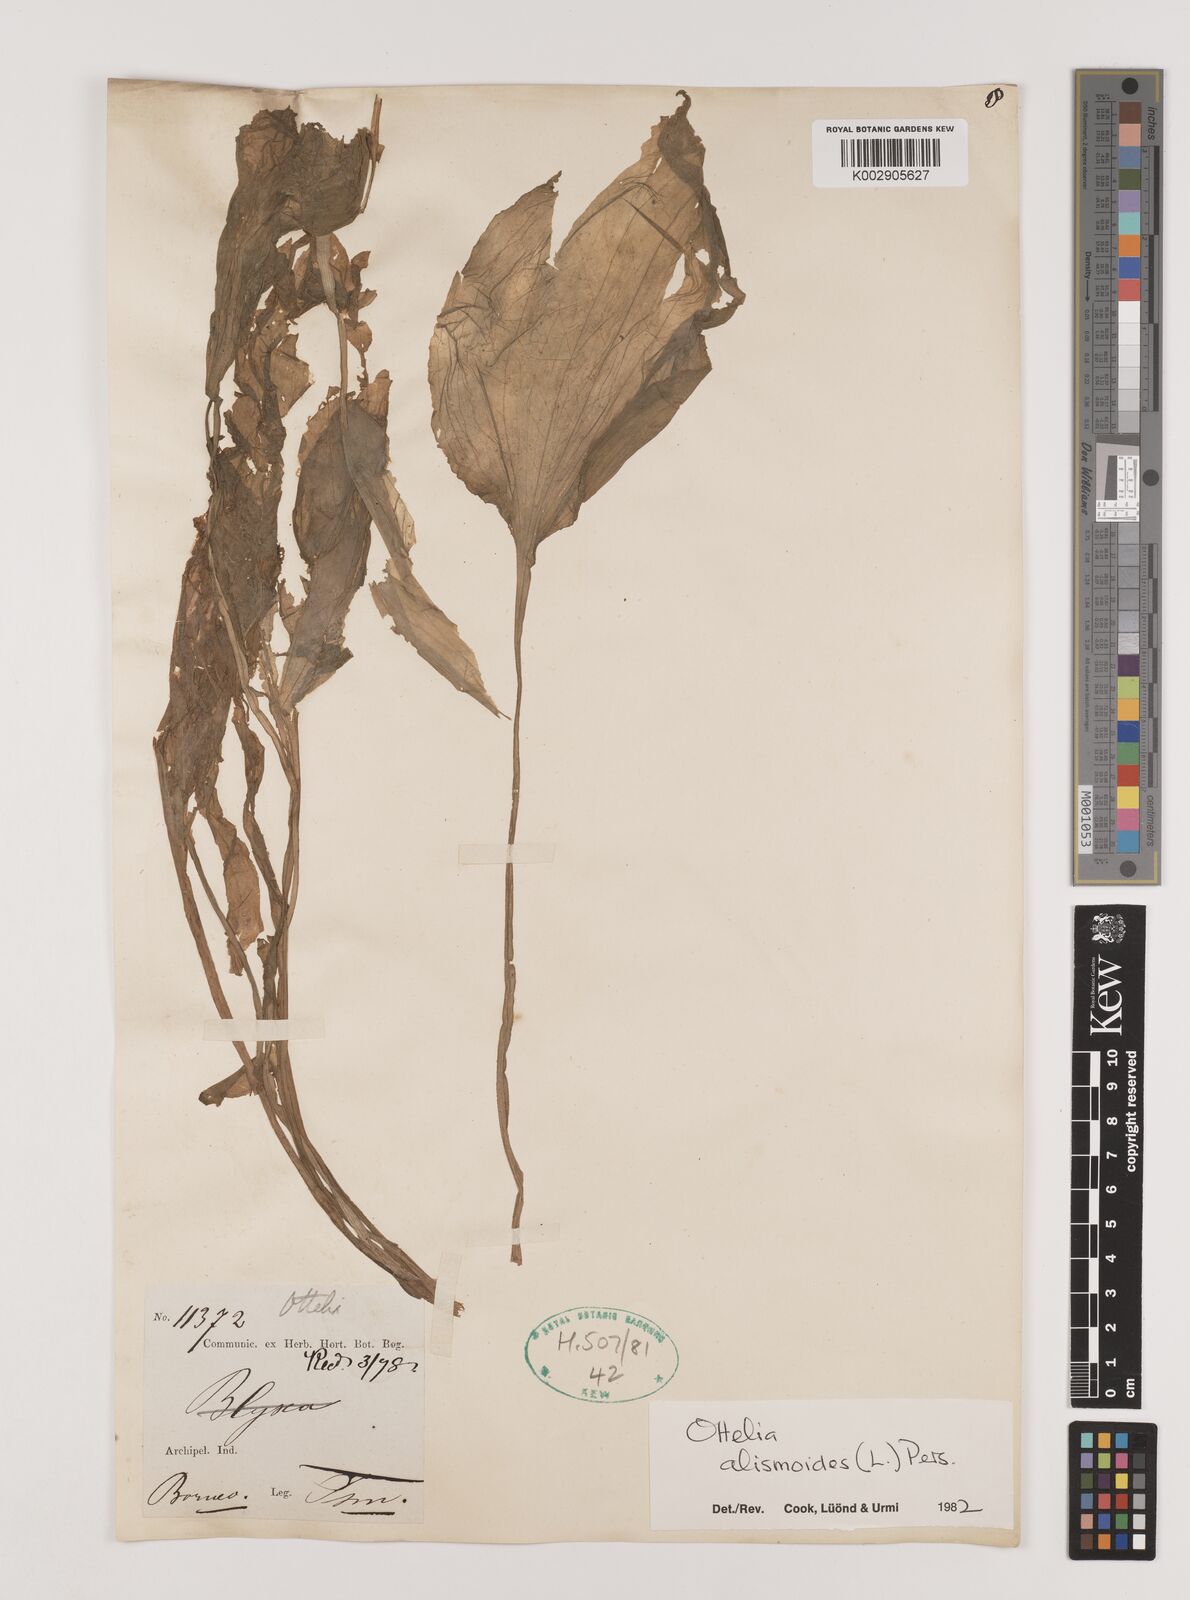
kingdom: Plantae
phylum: Tracheophyta
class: Liliopsida
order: Alismatales
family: Hydrocharitaceae
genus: Ottelia
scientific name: Ottelia alismoides
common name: Duck-lettuce
